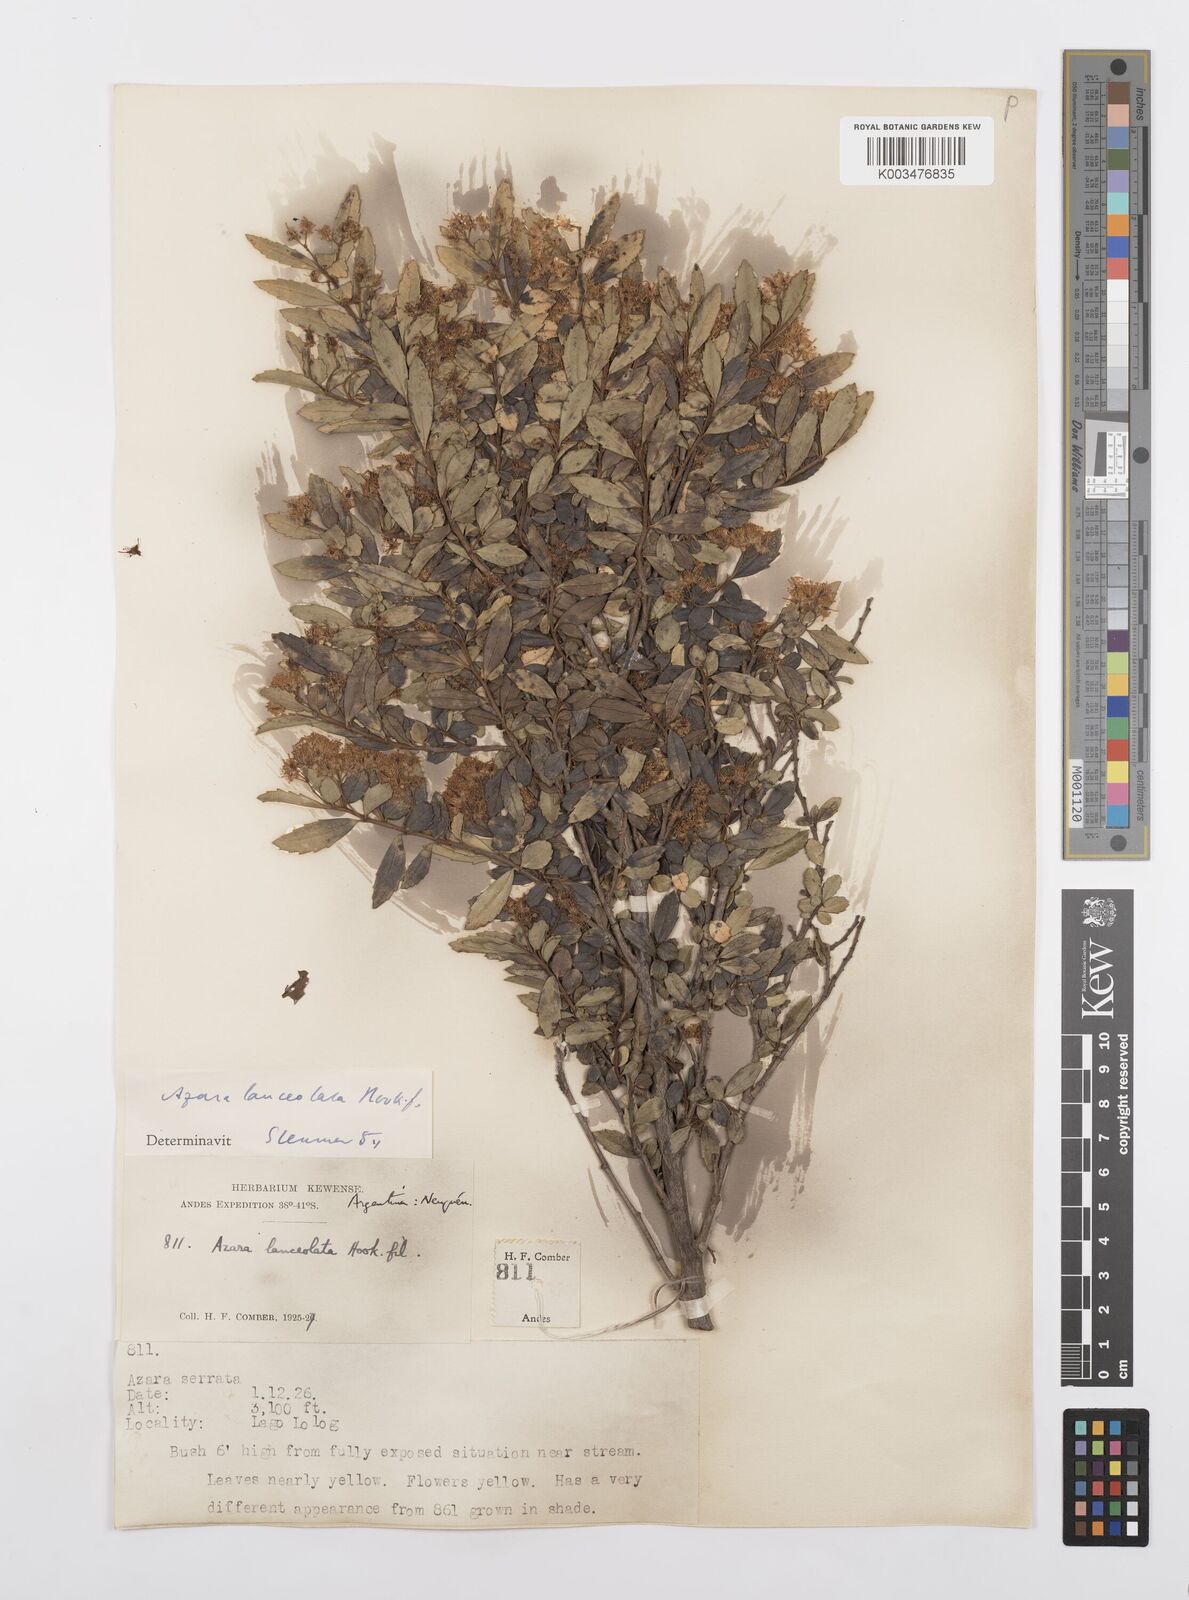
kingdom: Plantae
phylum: Tracheophyta
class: Magnoliopsida
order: Malpighiales
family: Salicaceae
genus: Azara
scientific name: Azara lanceolata
